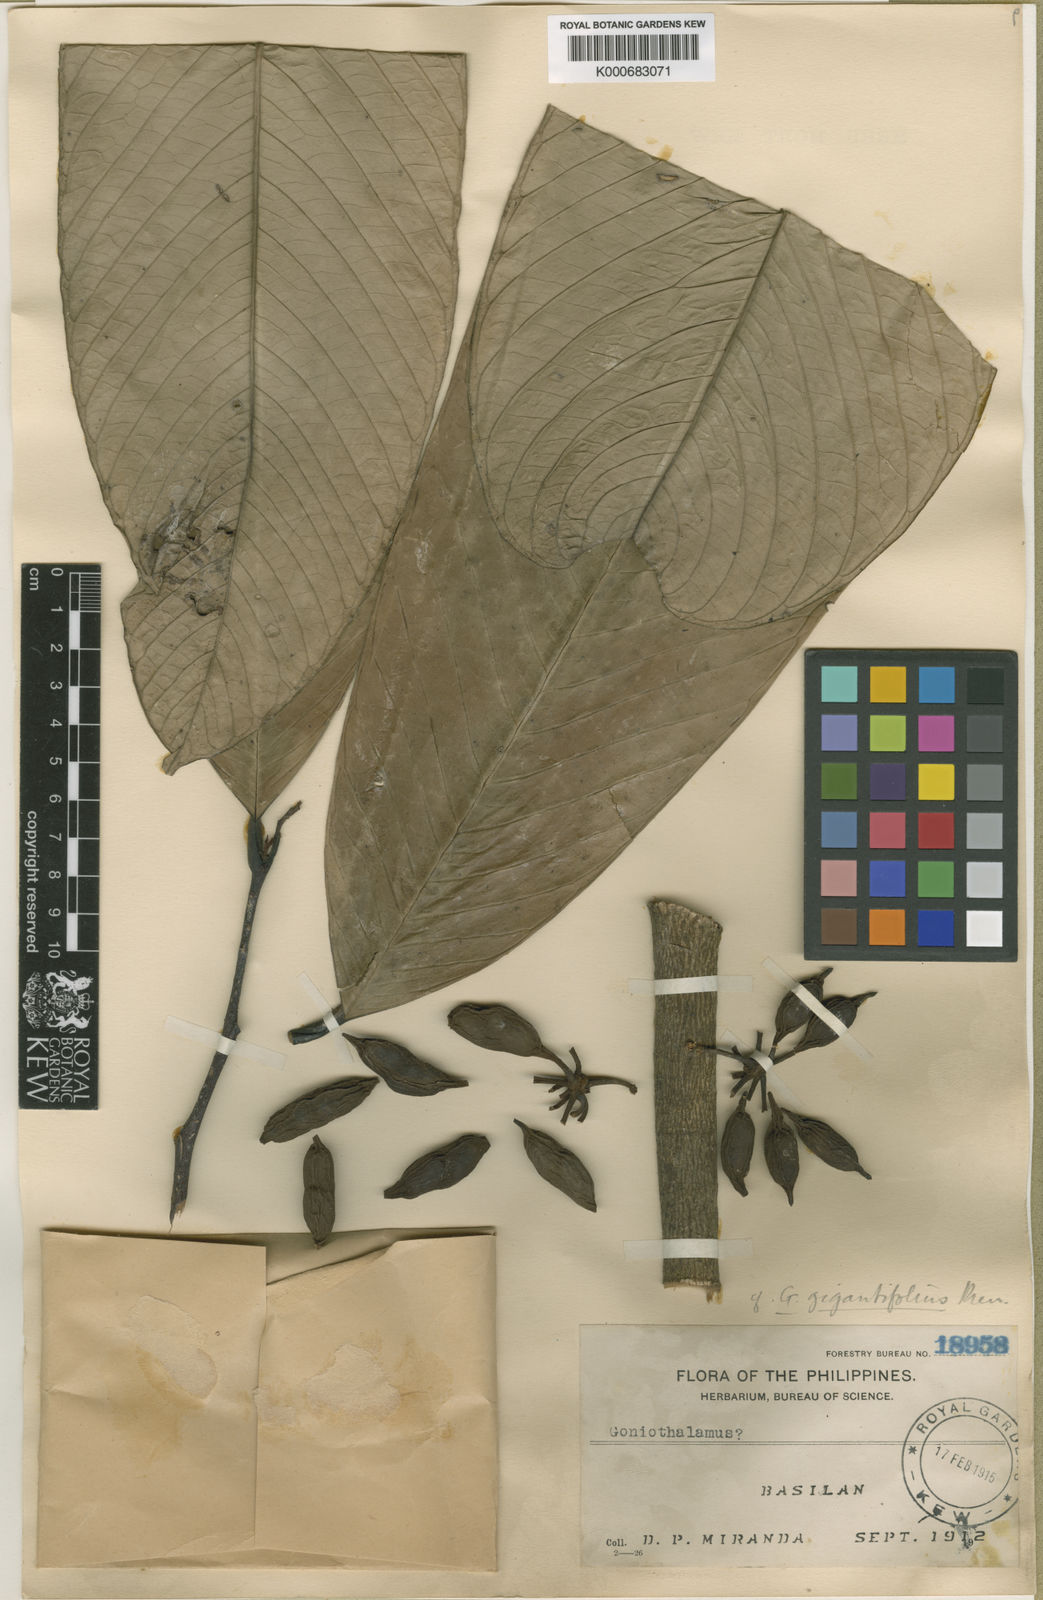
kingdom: Plantae
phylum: Tracheophyta
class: Magnoliopsida
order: Magnoliales
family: Annonaceae
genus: Goniothalamus
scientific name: Goniothalamus gigantifolius
